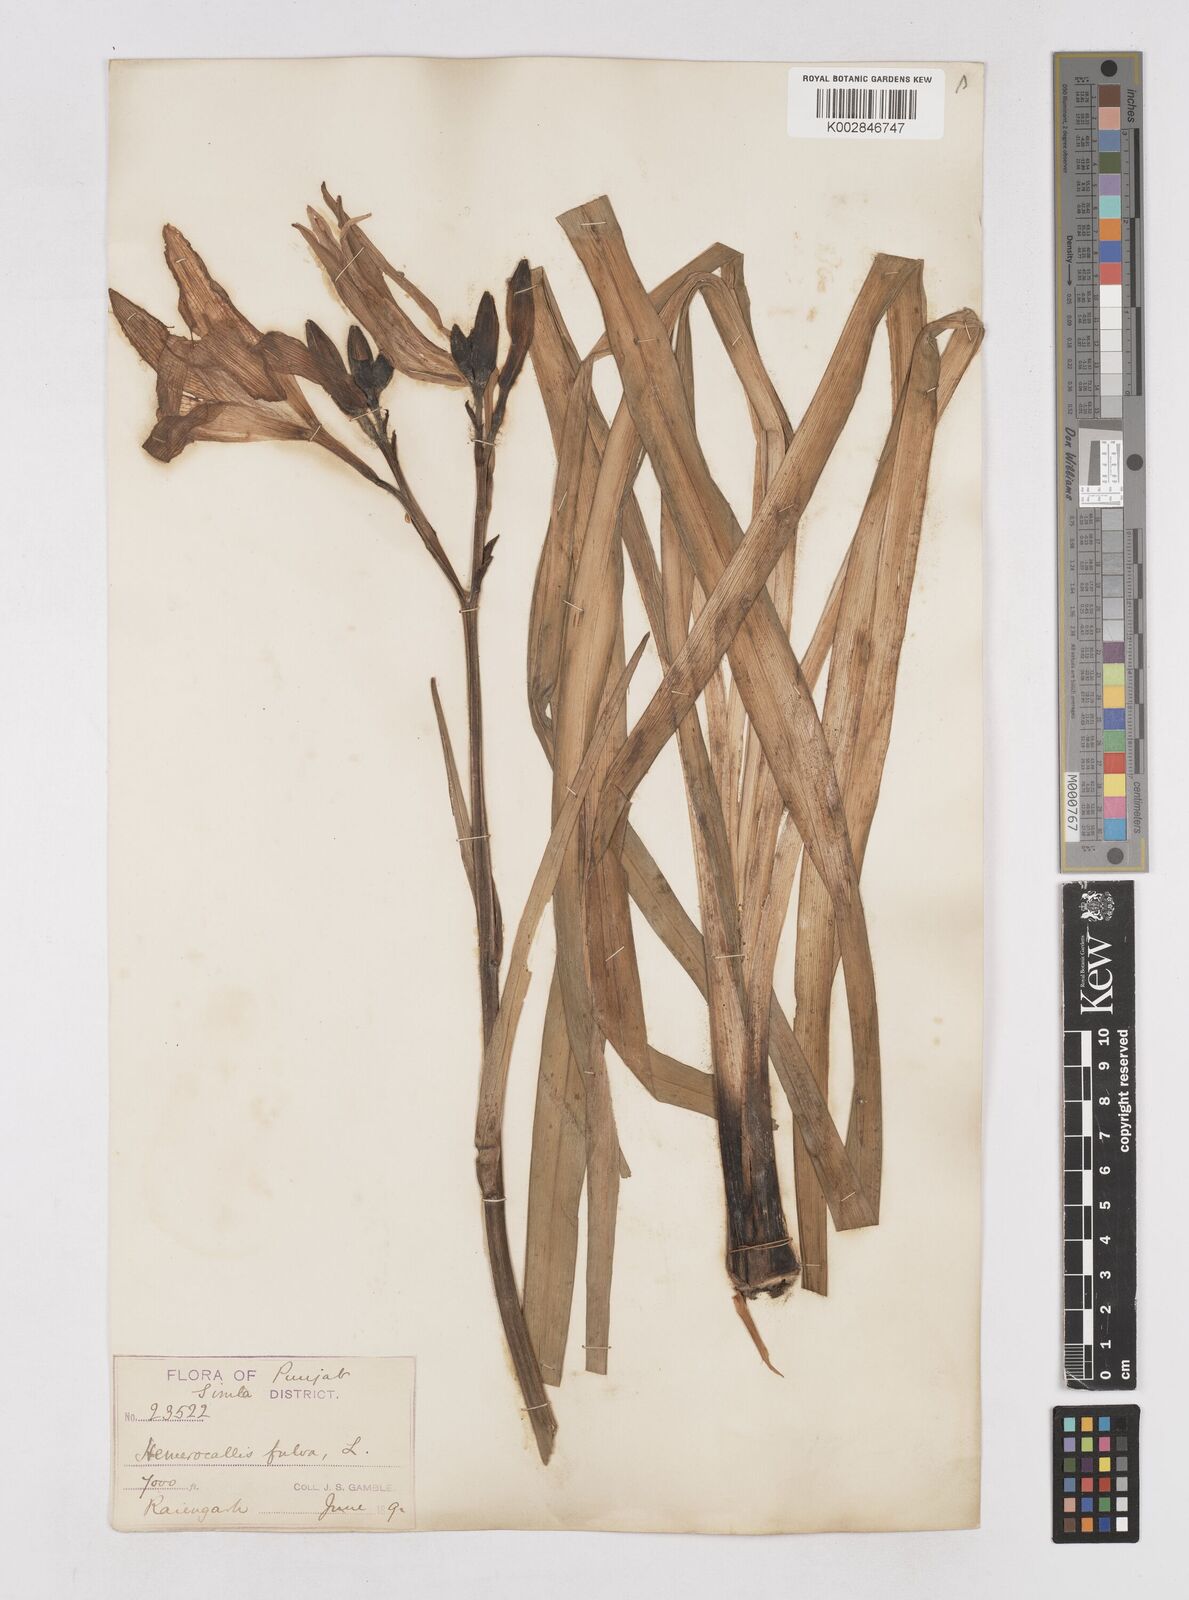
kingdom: Plantae
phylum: Tracheophyta
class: Liliopsida
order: Asparagales
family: Asphodelaceae
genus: Hemerocallis
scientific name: Hemerocallis fulva
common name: Orange day-lily
